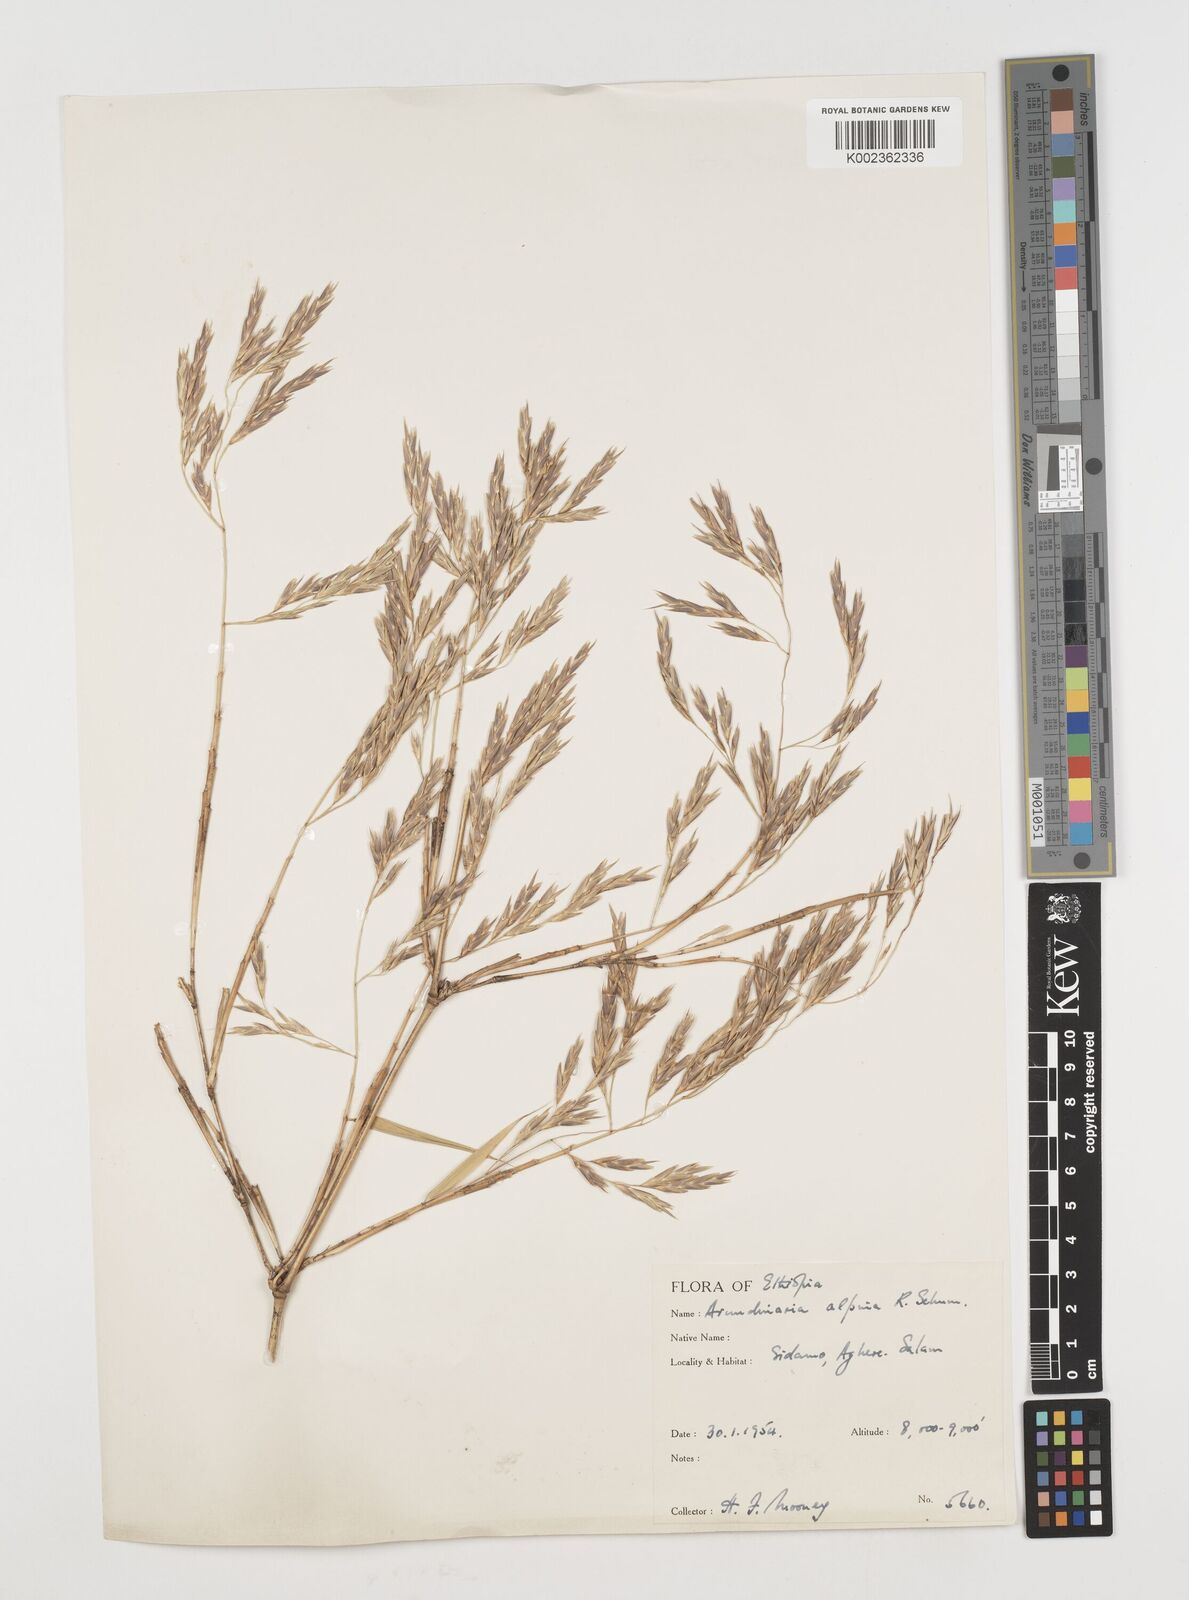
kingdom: Plantae
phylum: Tracheophyta
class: Liliopsida
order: Poales
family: Poaceae
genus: Oldeania
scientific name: Oldeania alpina
